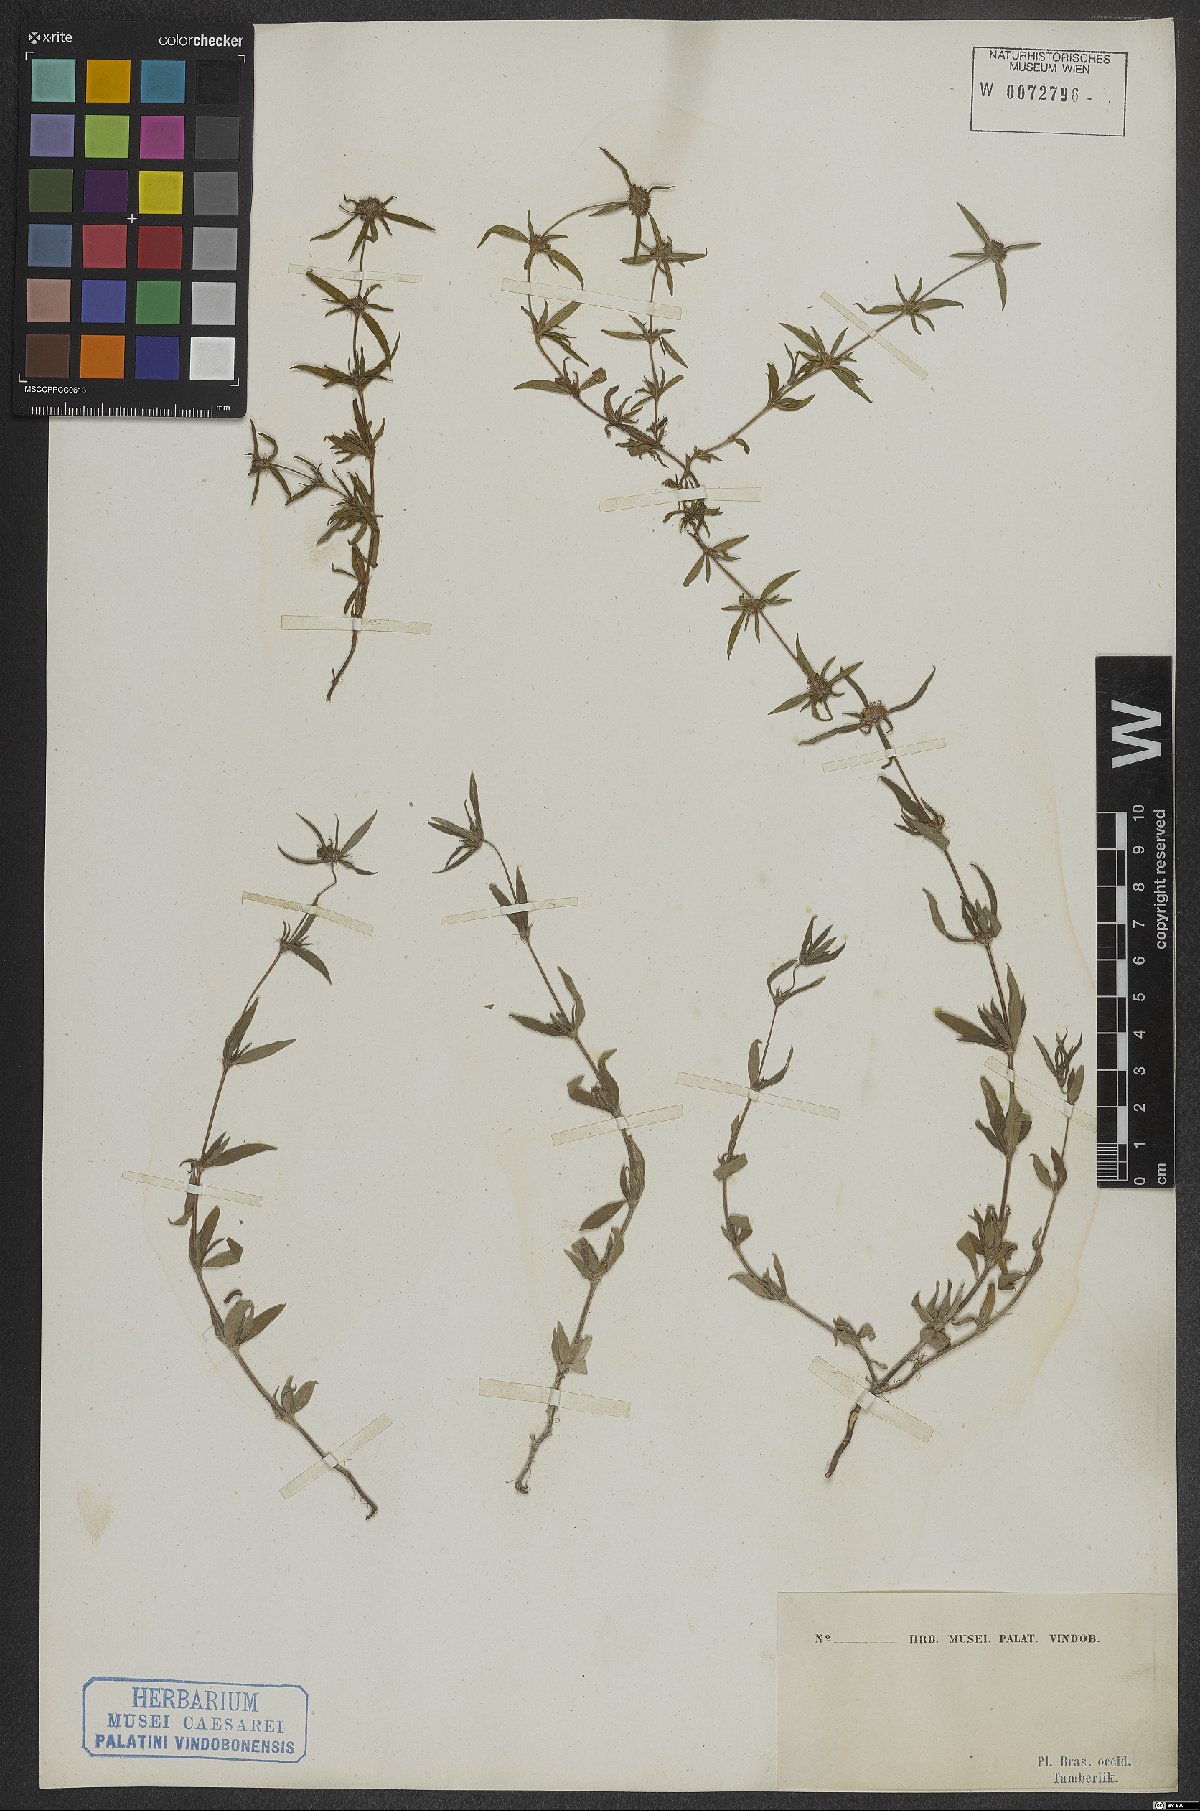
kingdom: Plantae
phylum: Tracheophyta
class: Magnoliopsida
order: Gentianales
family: Rubiaceae
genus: Spermacoce
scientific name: Spermacoce
